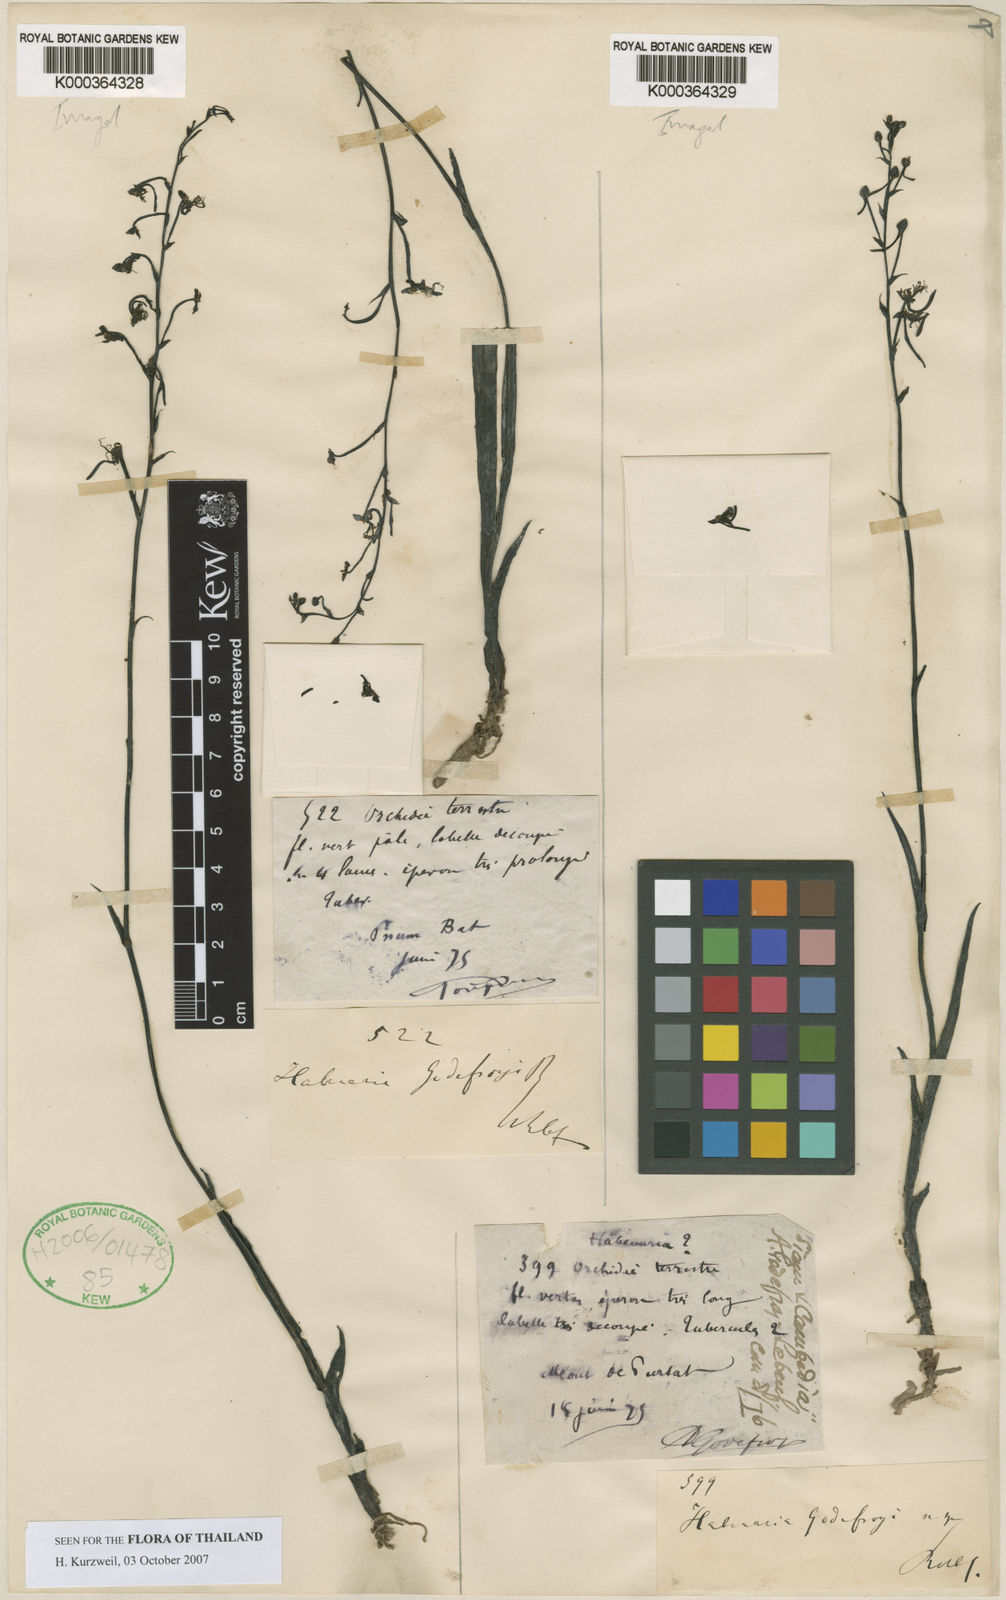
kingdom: Plantae
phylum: Tracheophyta
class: Liliopsida
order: Asparagales
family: Orchidaceae
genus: Habenaria
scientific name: Habenaria godefroyi
